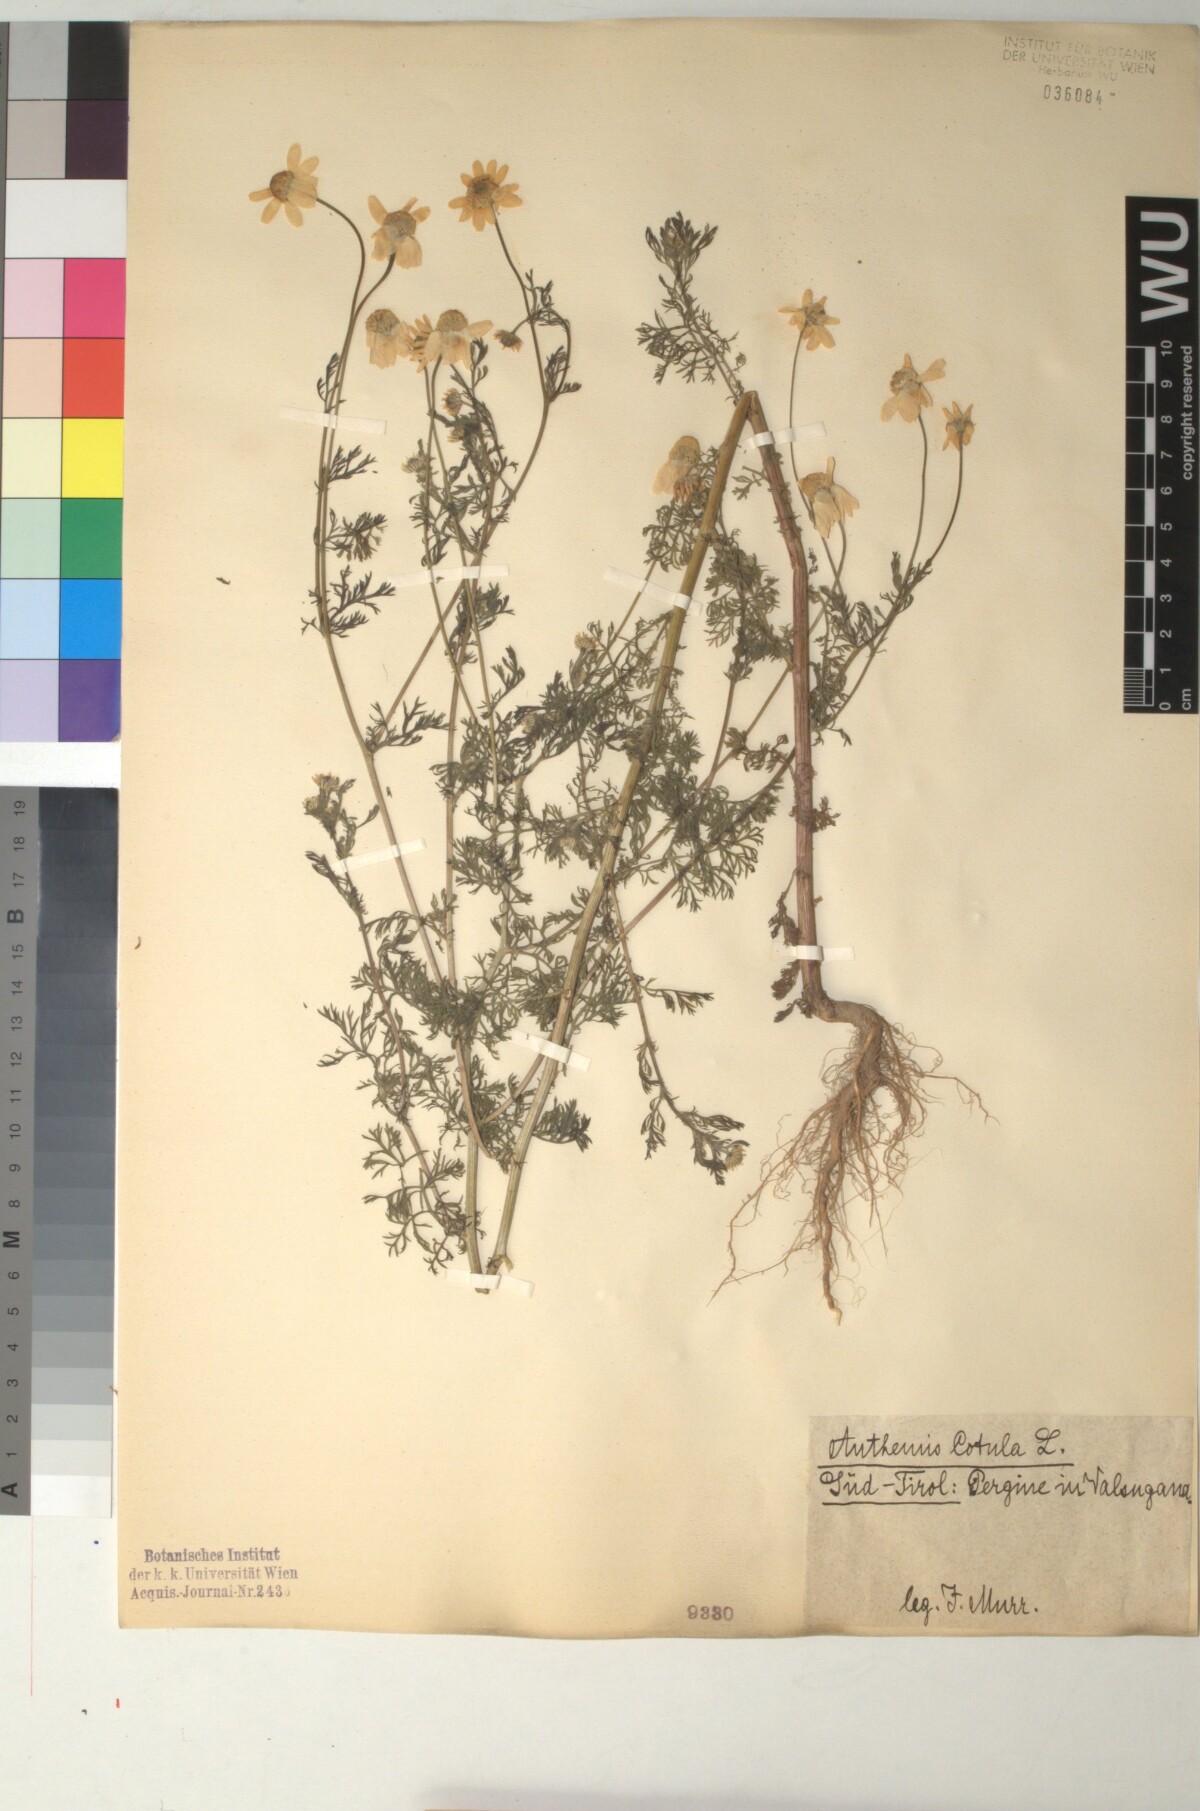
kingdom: Plantae
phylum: Tracheophyta
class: Magnoliopsida
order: Asterales
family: Asteraceae
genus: Anthemis
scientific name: Anthemis cotula
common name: Stinking chamomile
